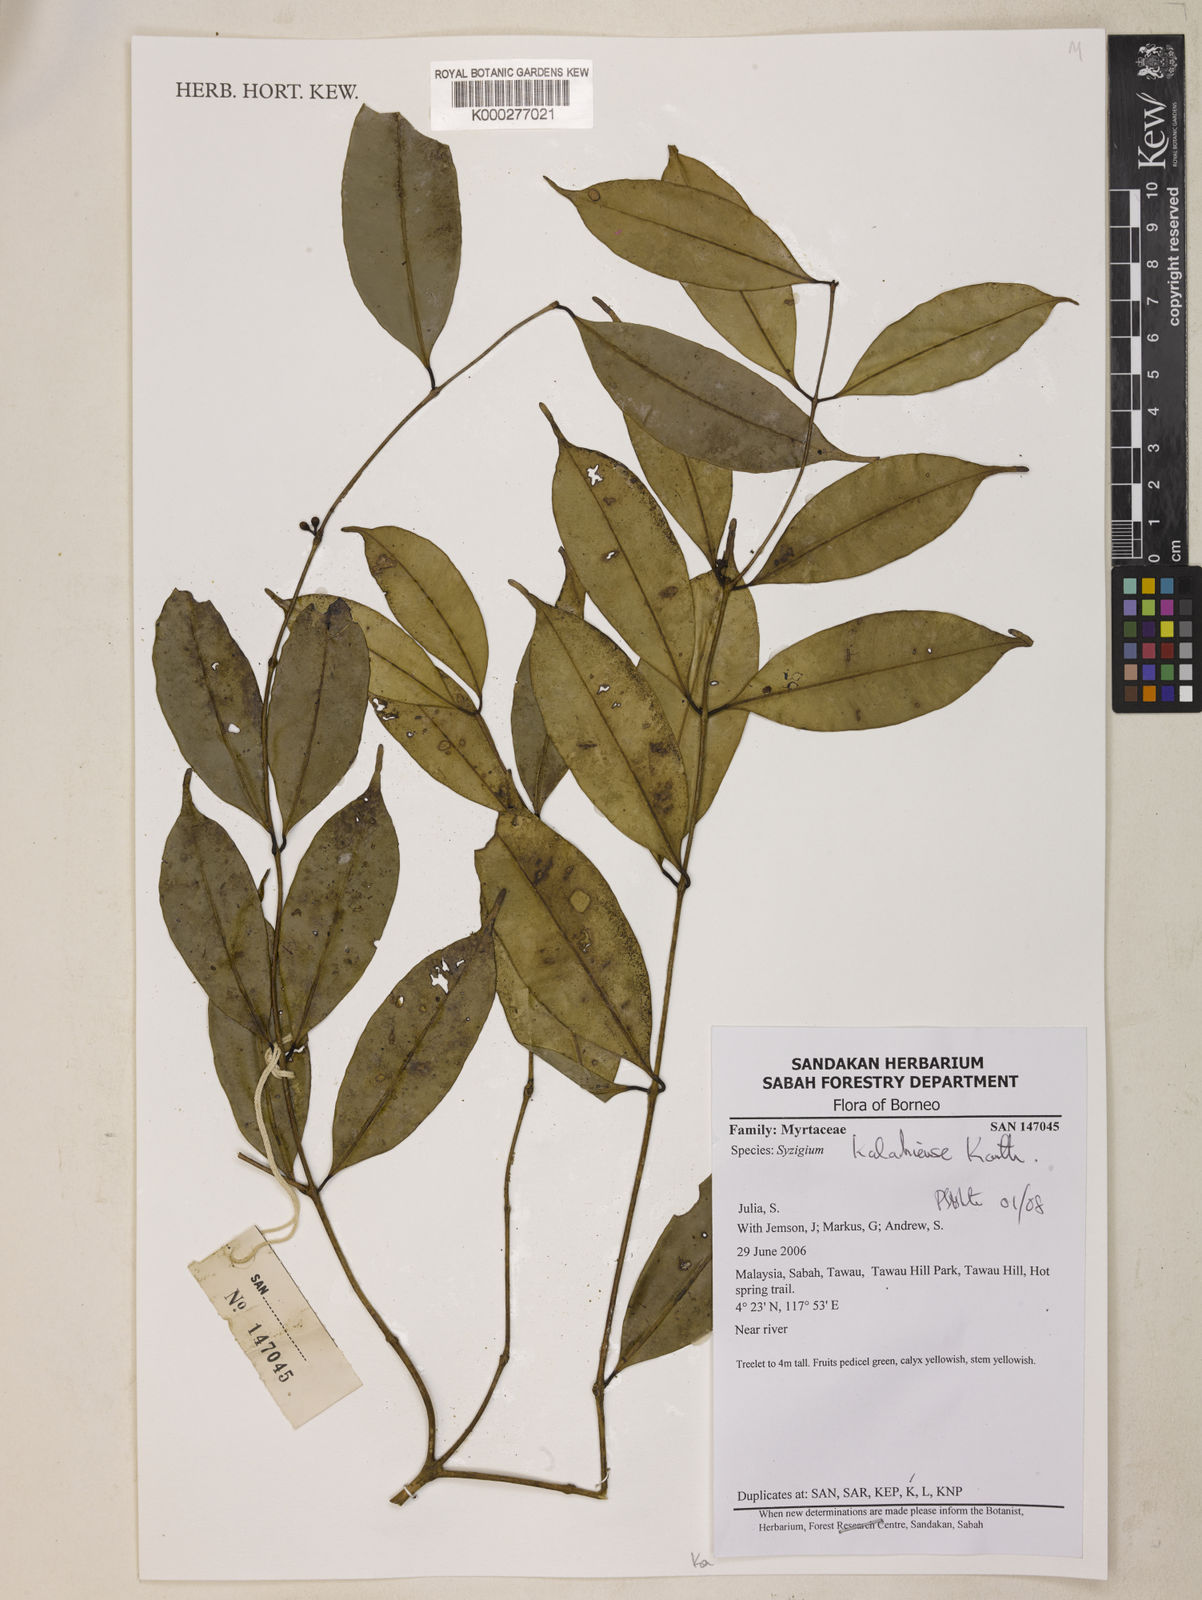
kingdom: Plantae
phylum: Tracheophyta
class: Magnoliopsida
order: Myrtales
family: Myrtaceae
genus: Syzygium
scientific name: Syzygium
